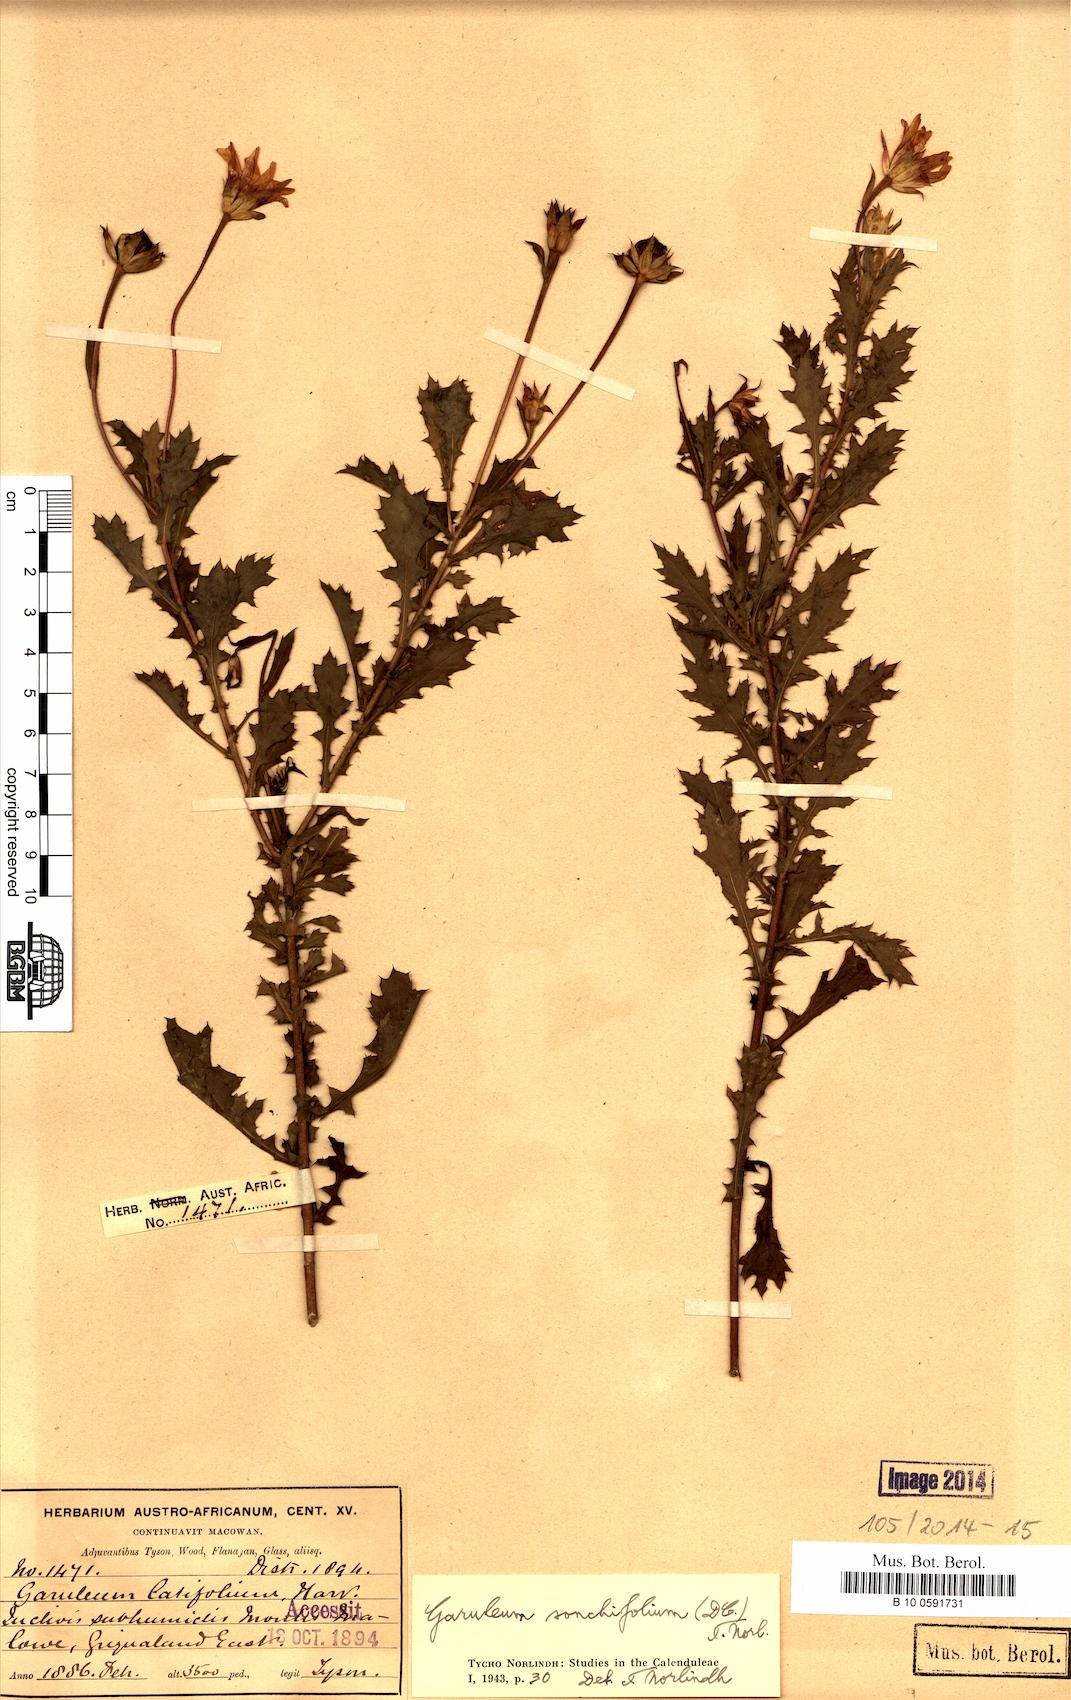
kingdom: Plantae
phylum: Tracheophyta
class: Magnoliopsida
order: Asterales
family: Asteraceae
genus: Garuleum
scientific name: Garuleum sonchifolium
